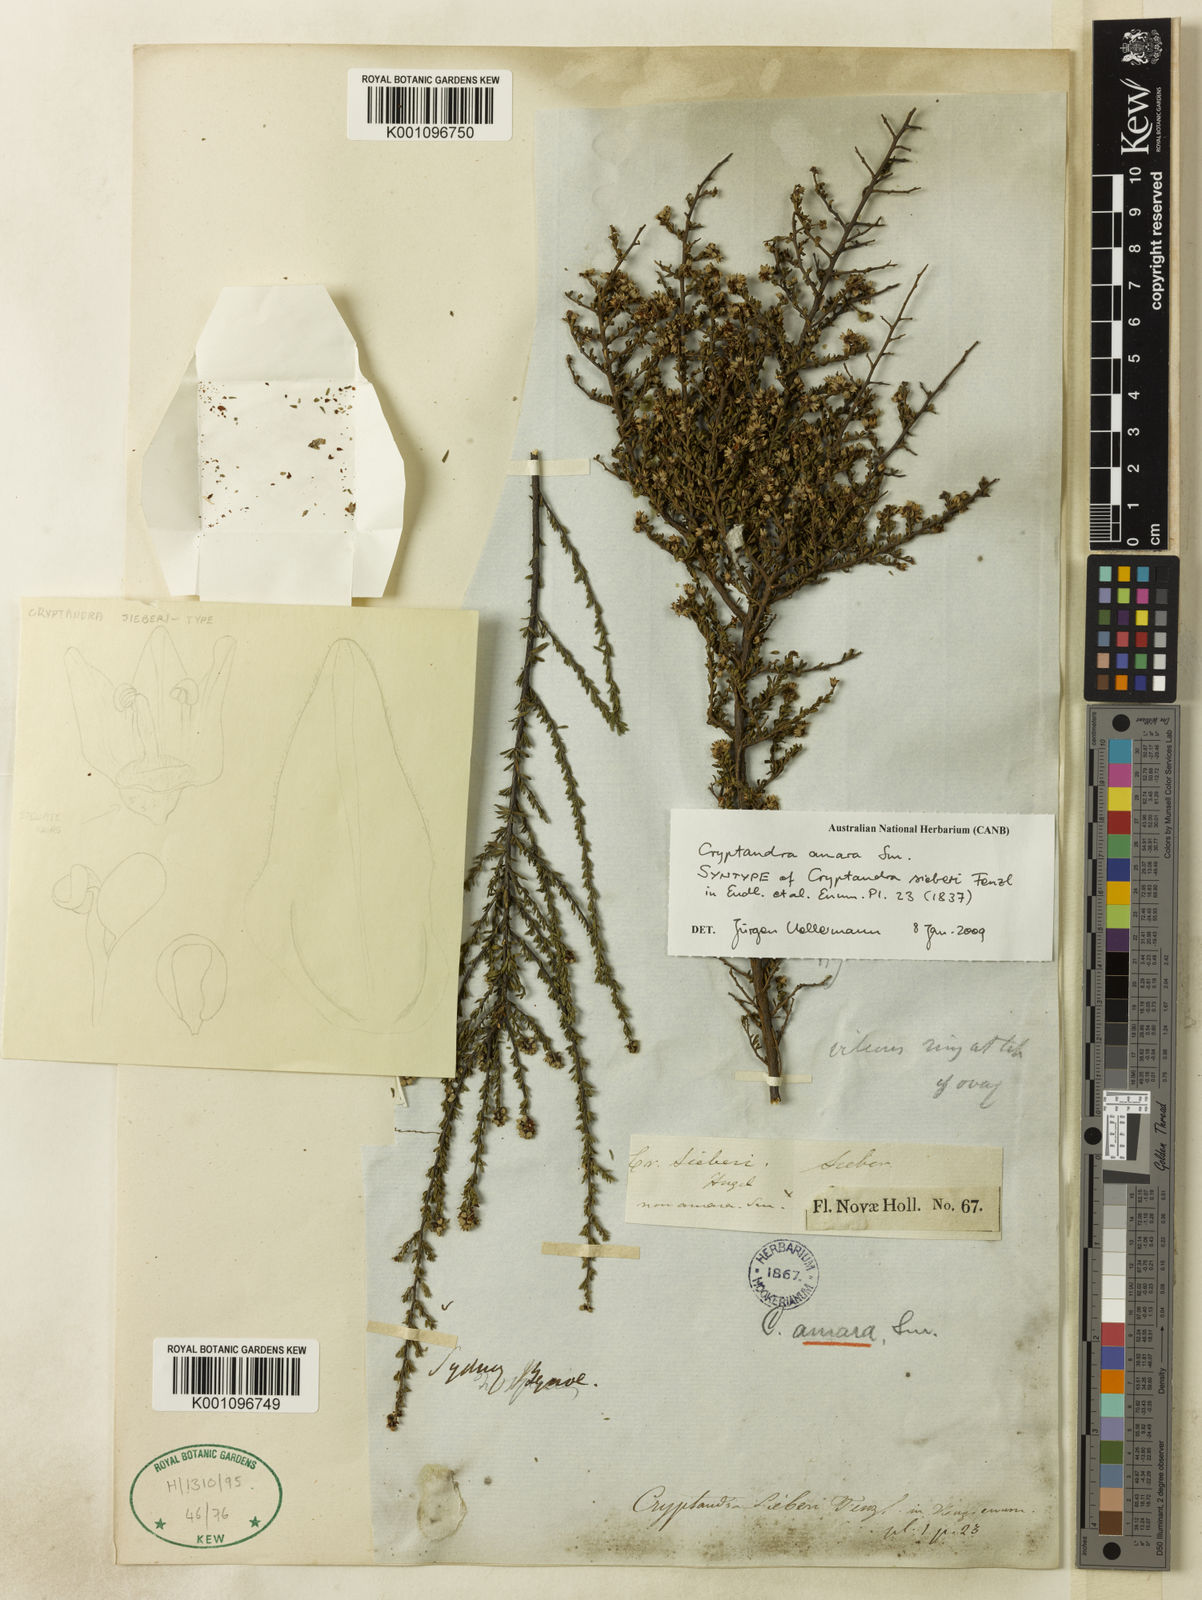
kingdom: Plantae
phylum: Tracheophyta
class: Magnoliopsida
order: Rosales
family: Rhamnaceae
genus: Cryptandra
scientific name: Cryptandra amara
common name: Bitter cryptandra
